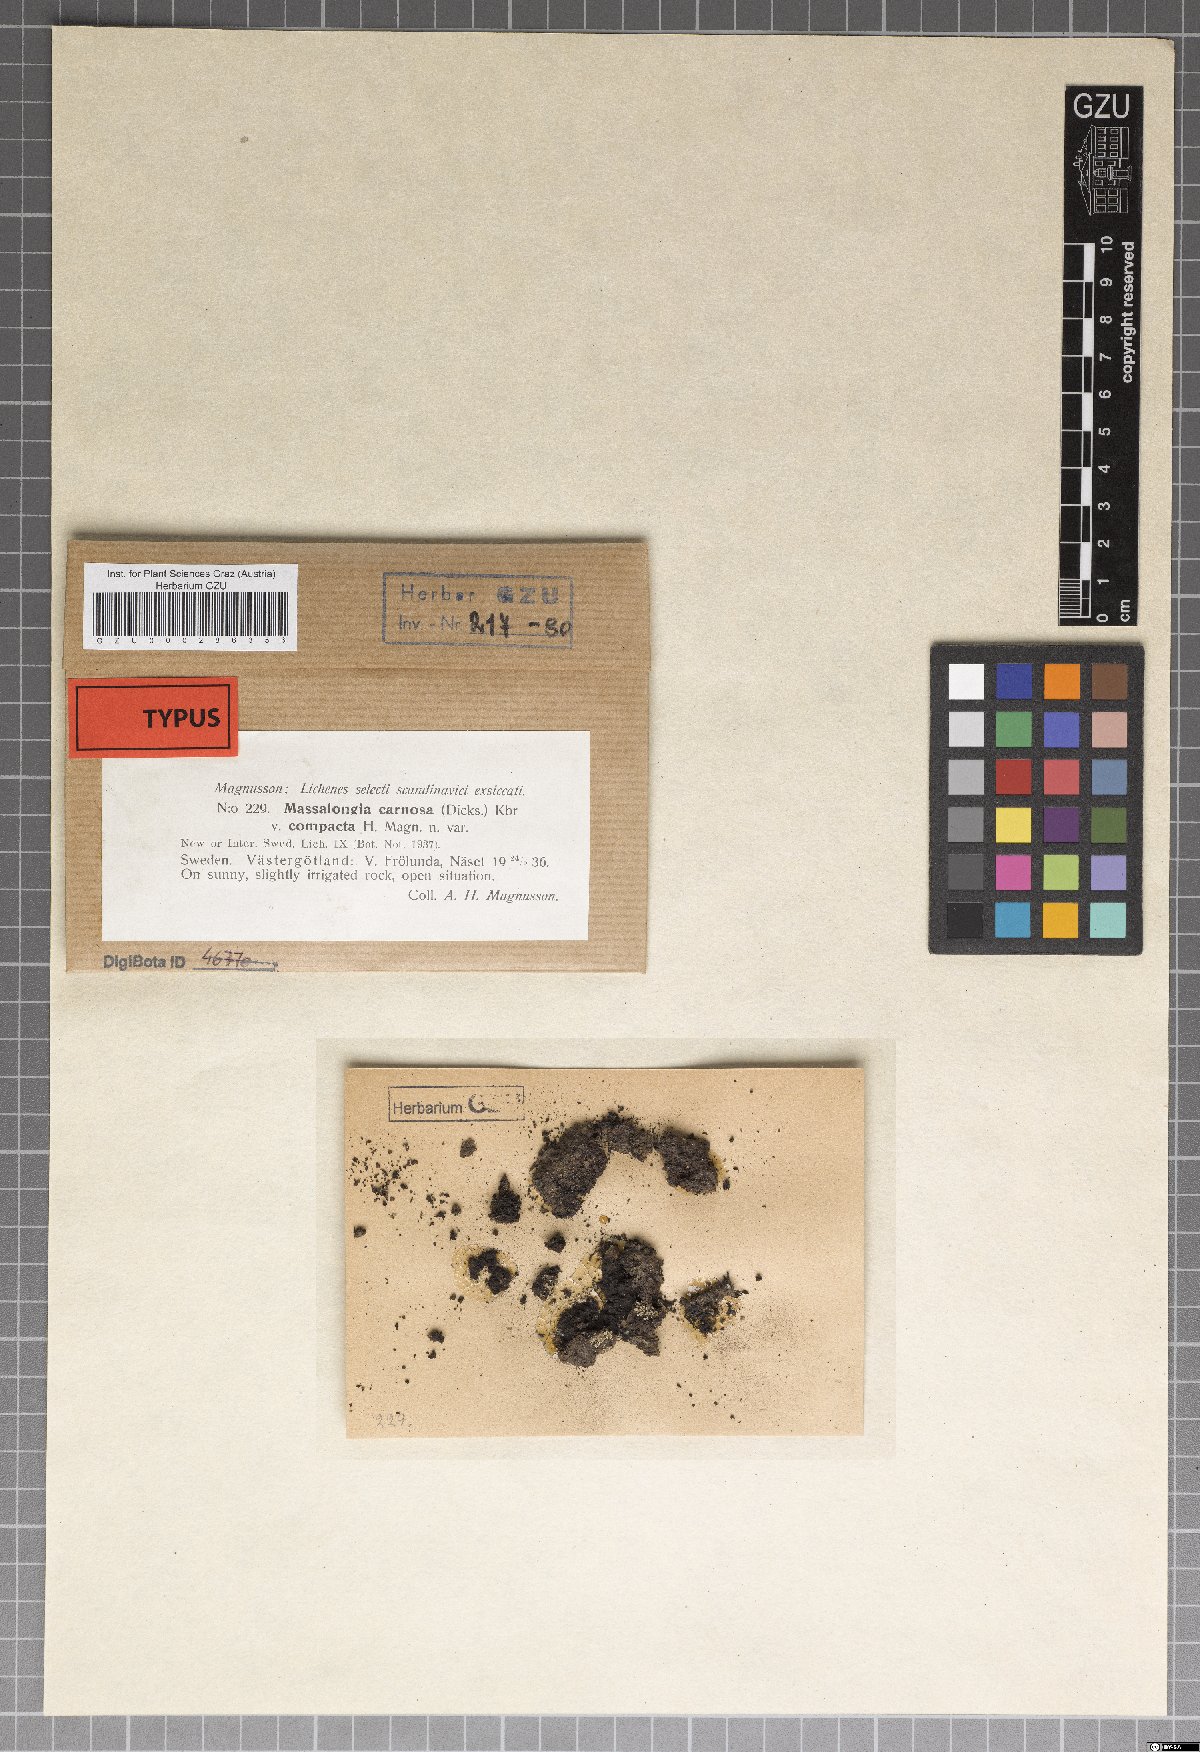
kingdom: Fungi
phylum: Ascomycota
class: Lecanoromycetes
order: Peltigerales
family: Massalongiaceae
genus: Massalongia
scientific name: Massalongia carnosa
